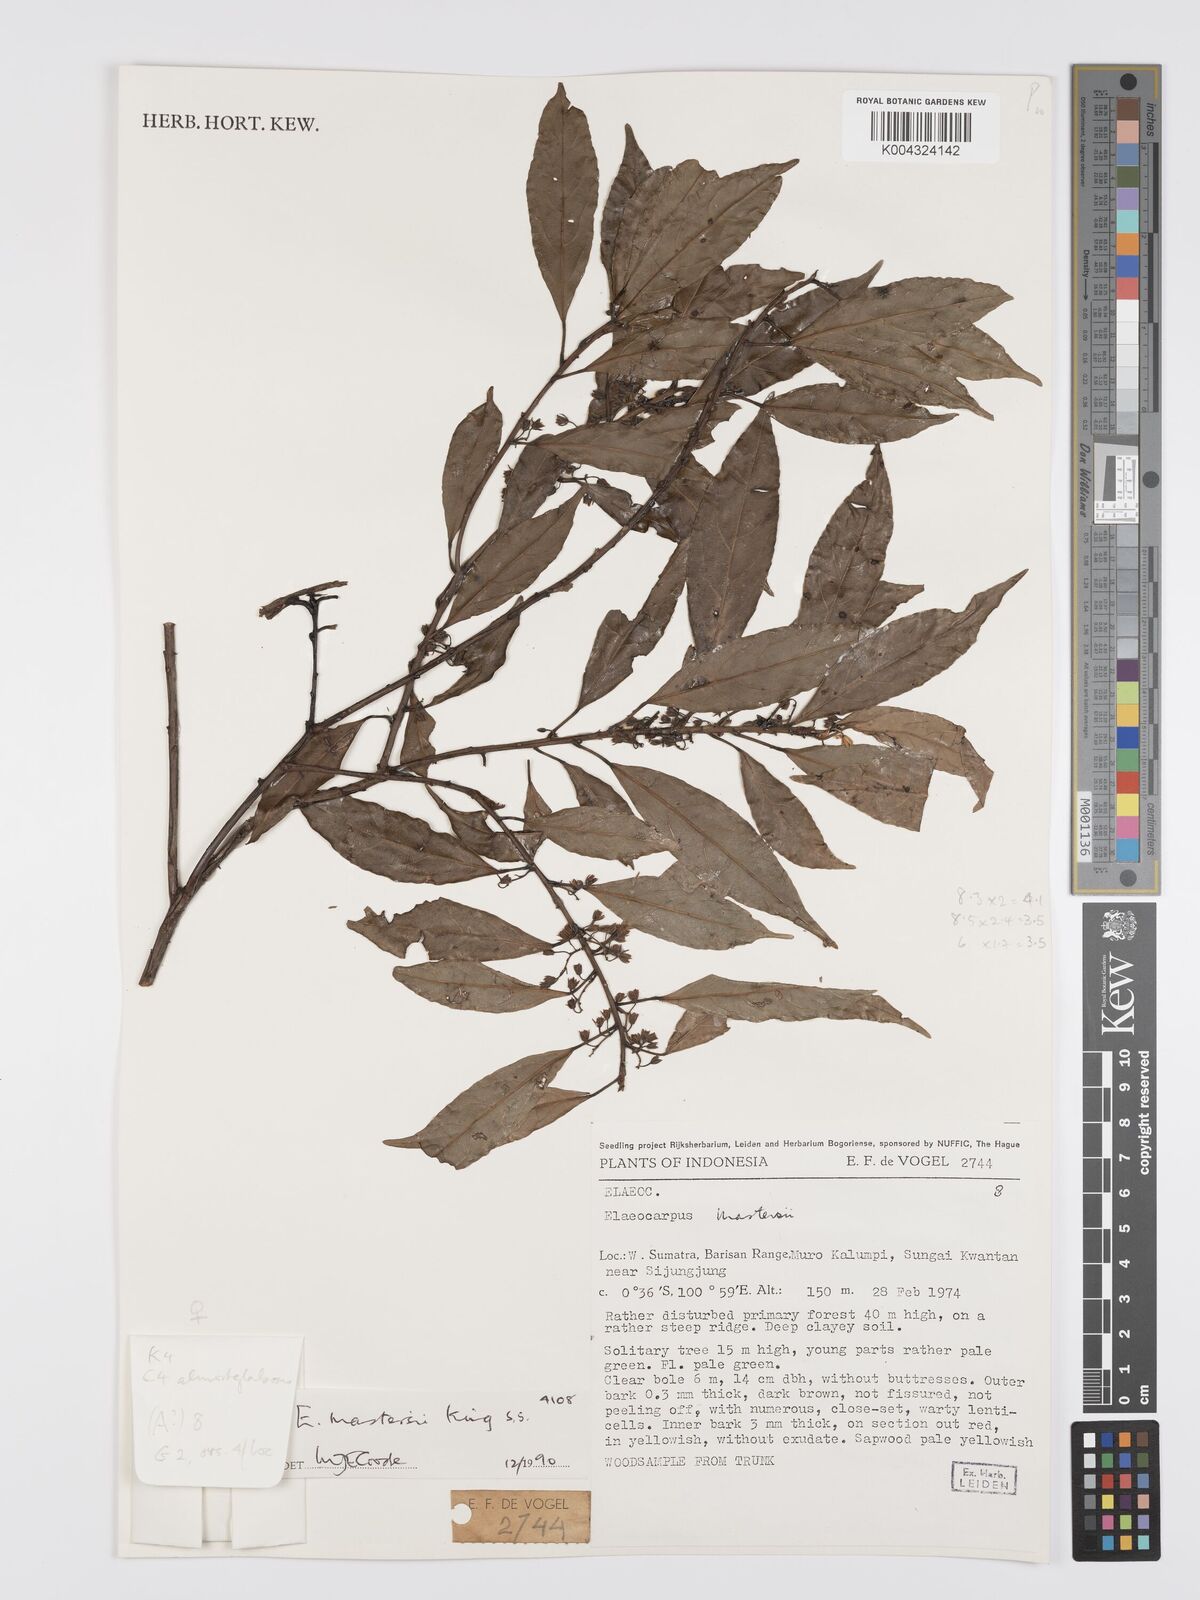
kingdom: Plantae
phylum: Tracheophyta
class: Magnoliopsida
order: Oxalidales
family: Elaeocarpaceae
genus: Elaeocarpus
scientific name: Elaeocarpus mastersii
